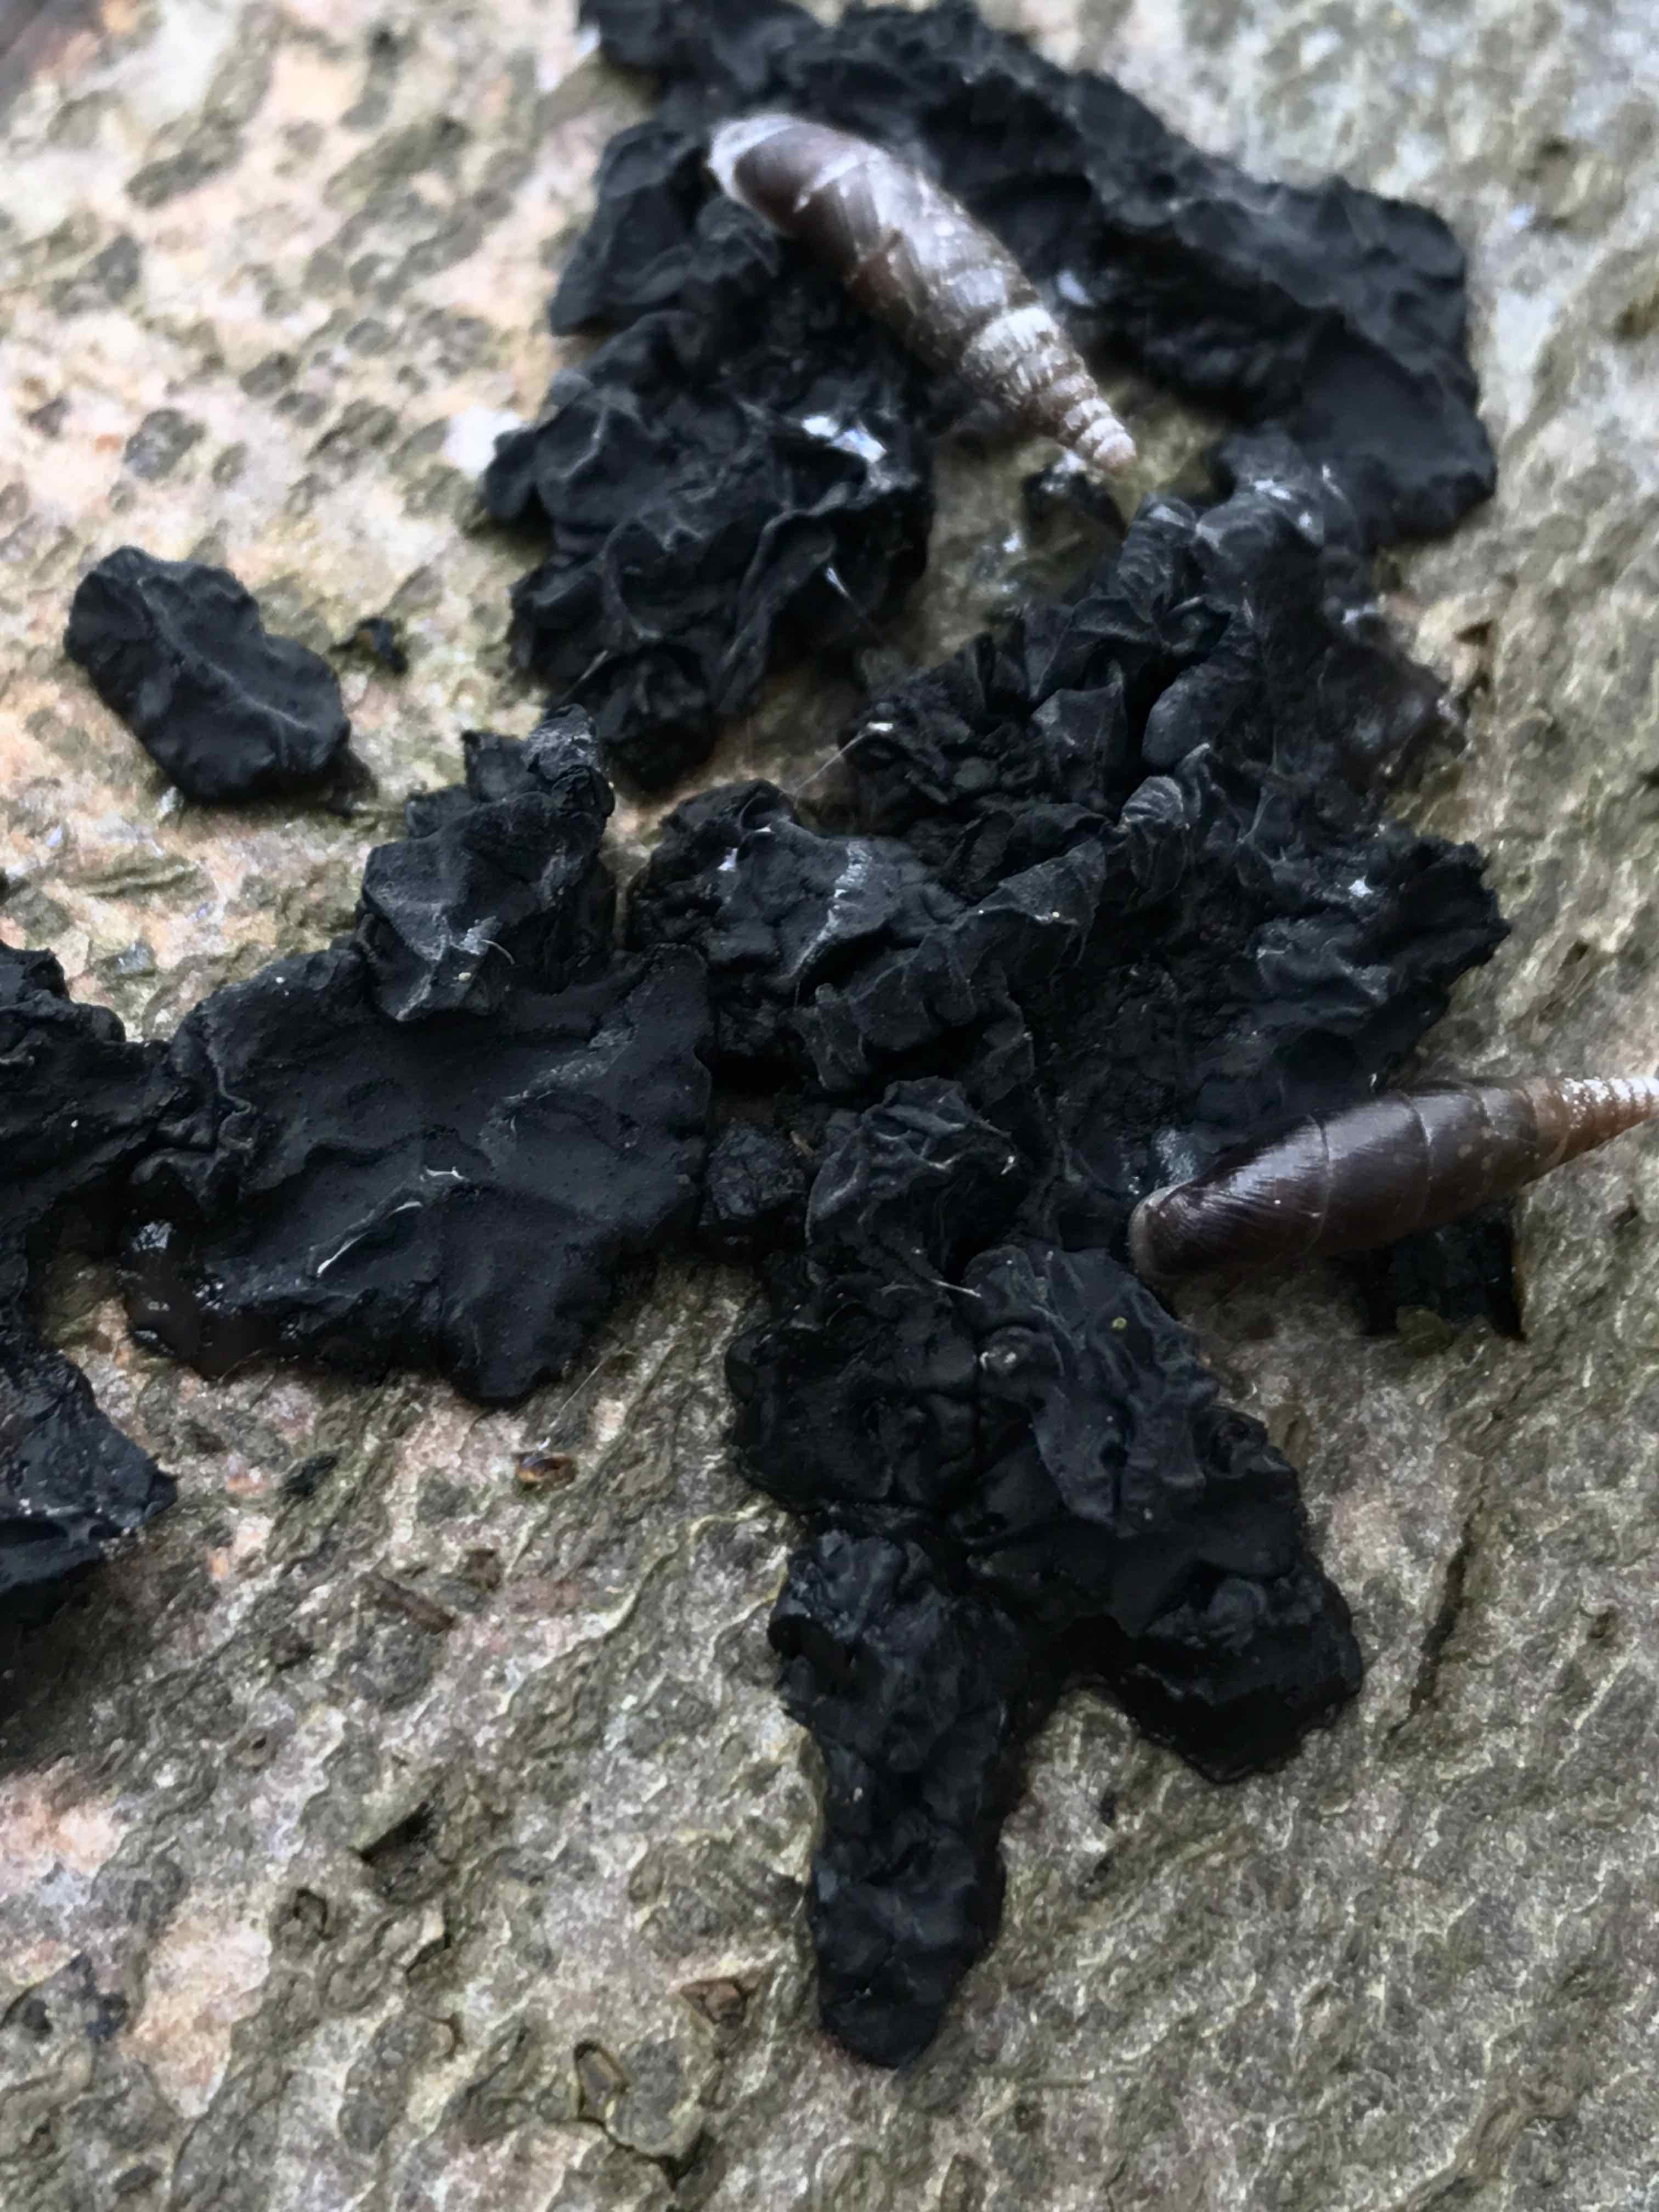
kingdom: Fungi
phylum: Basidiomycota
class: Agaricomycetes
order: Auriculariales
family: Auriculariaceae
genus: Exidia
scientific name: Exidia nigricans
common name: almindelig bævretop
